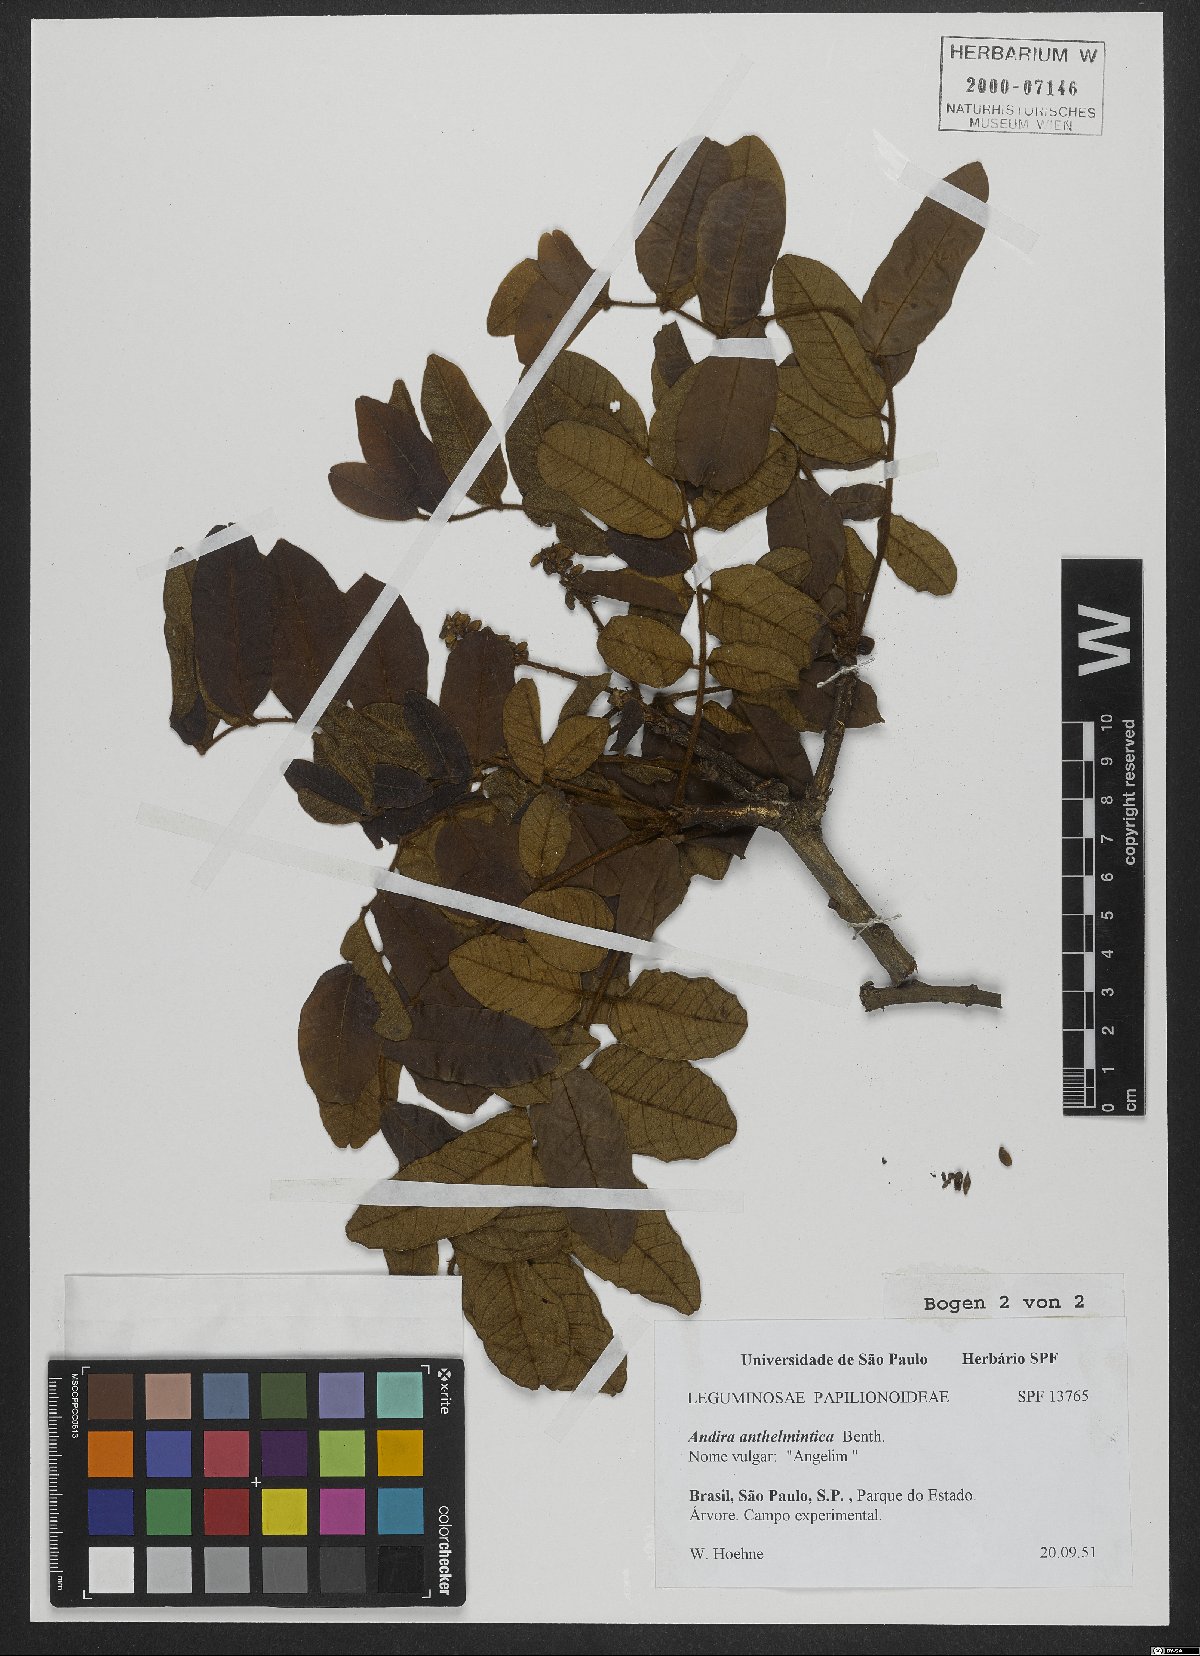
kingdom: Plantae
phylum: Tracheophyta
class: Magnoliopsida
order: Fabales
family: Fabaceae
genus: Andira
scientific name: Andira anthelmia
